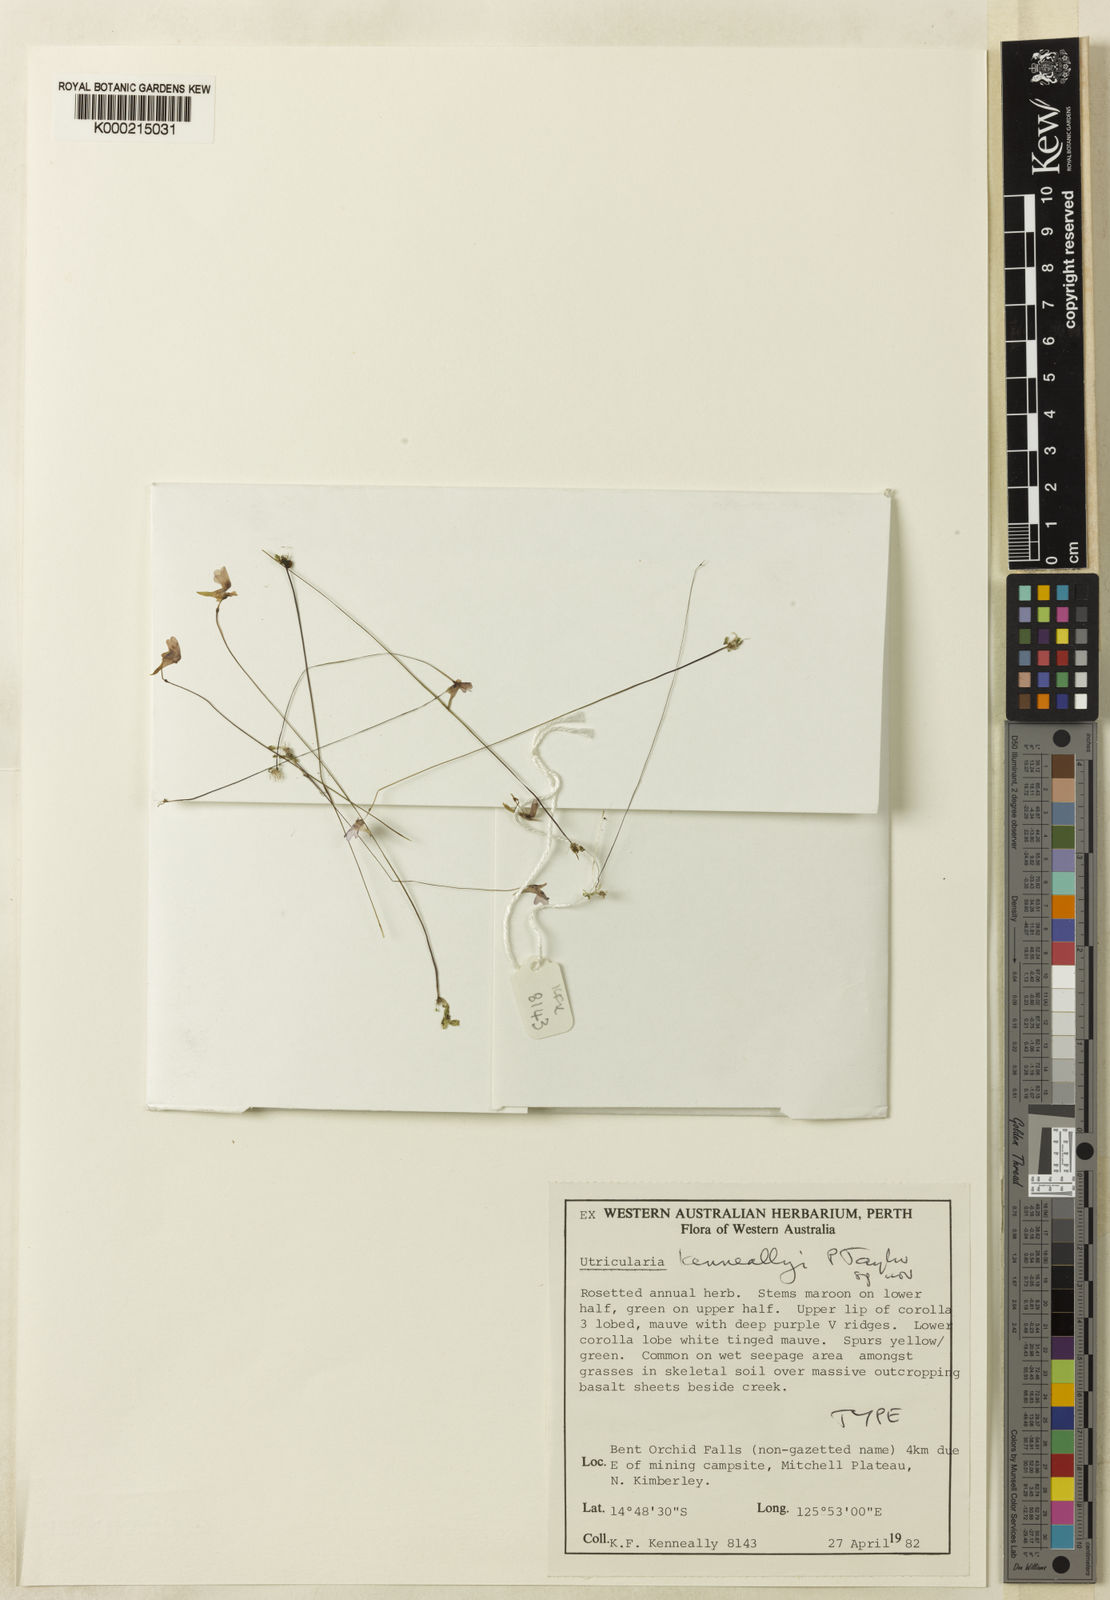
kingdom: Plantae
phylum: Tracheophyta
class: Magnoliopsida
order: Lamiales
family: Lentibulariaceae
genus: Utricularia
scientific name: Utricularia kenneallyi
